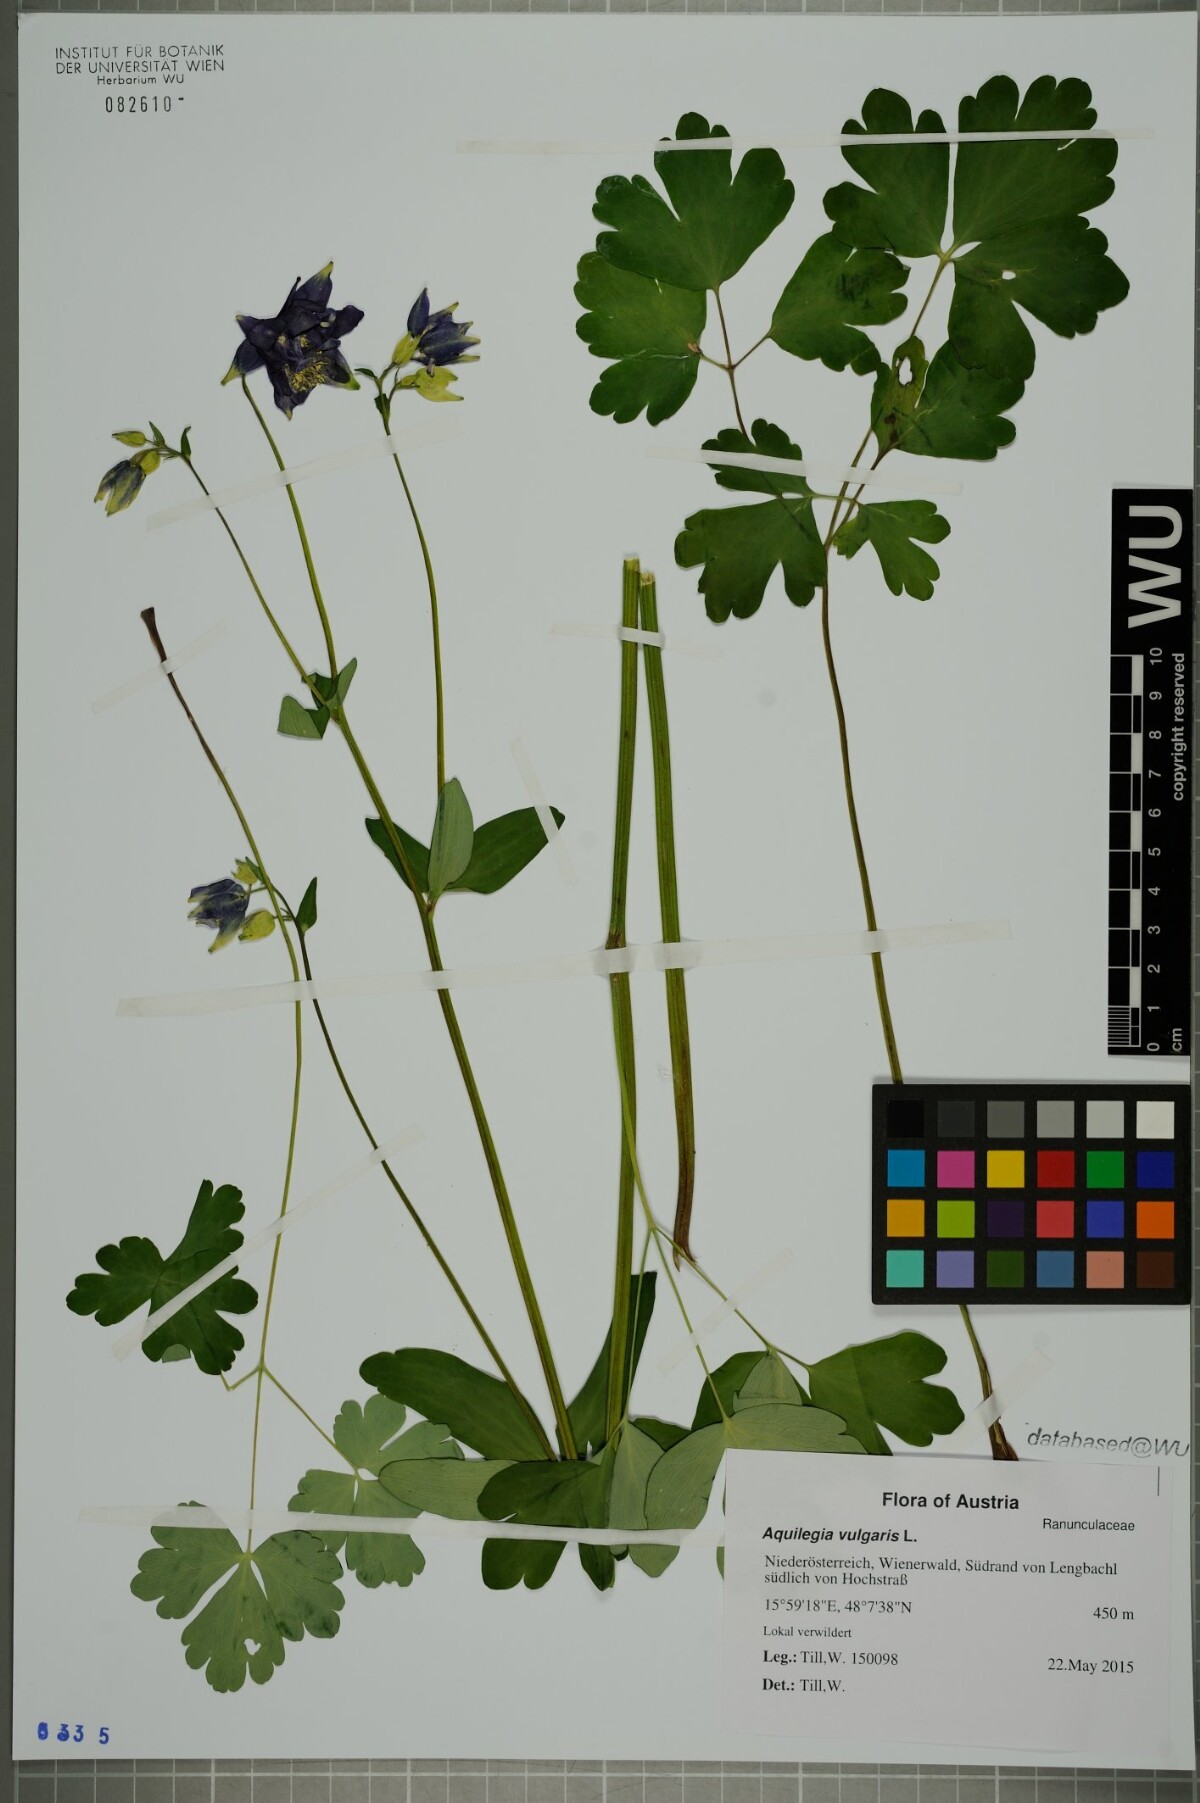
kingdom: Plantae
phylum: Tracheophyta
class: Magnoliopsida
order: Ranunculales
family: Ranunculaceae
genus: Aquilegia
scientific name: Aquilegia vulgaris
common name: Columbine
